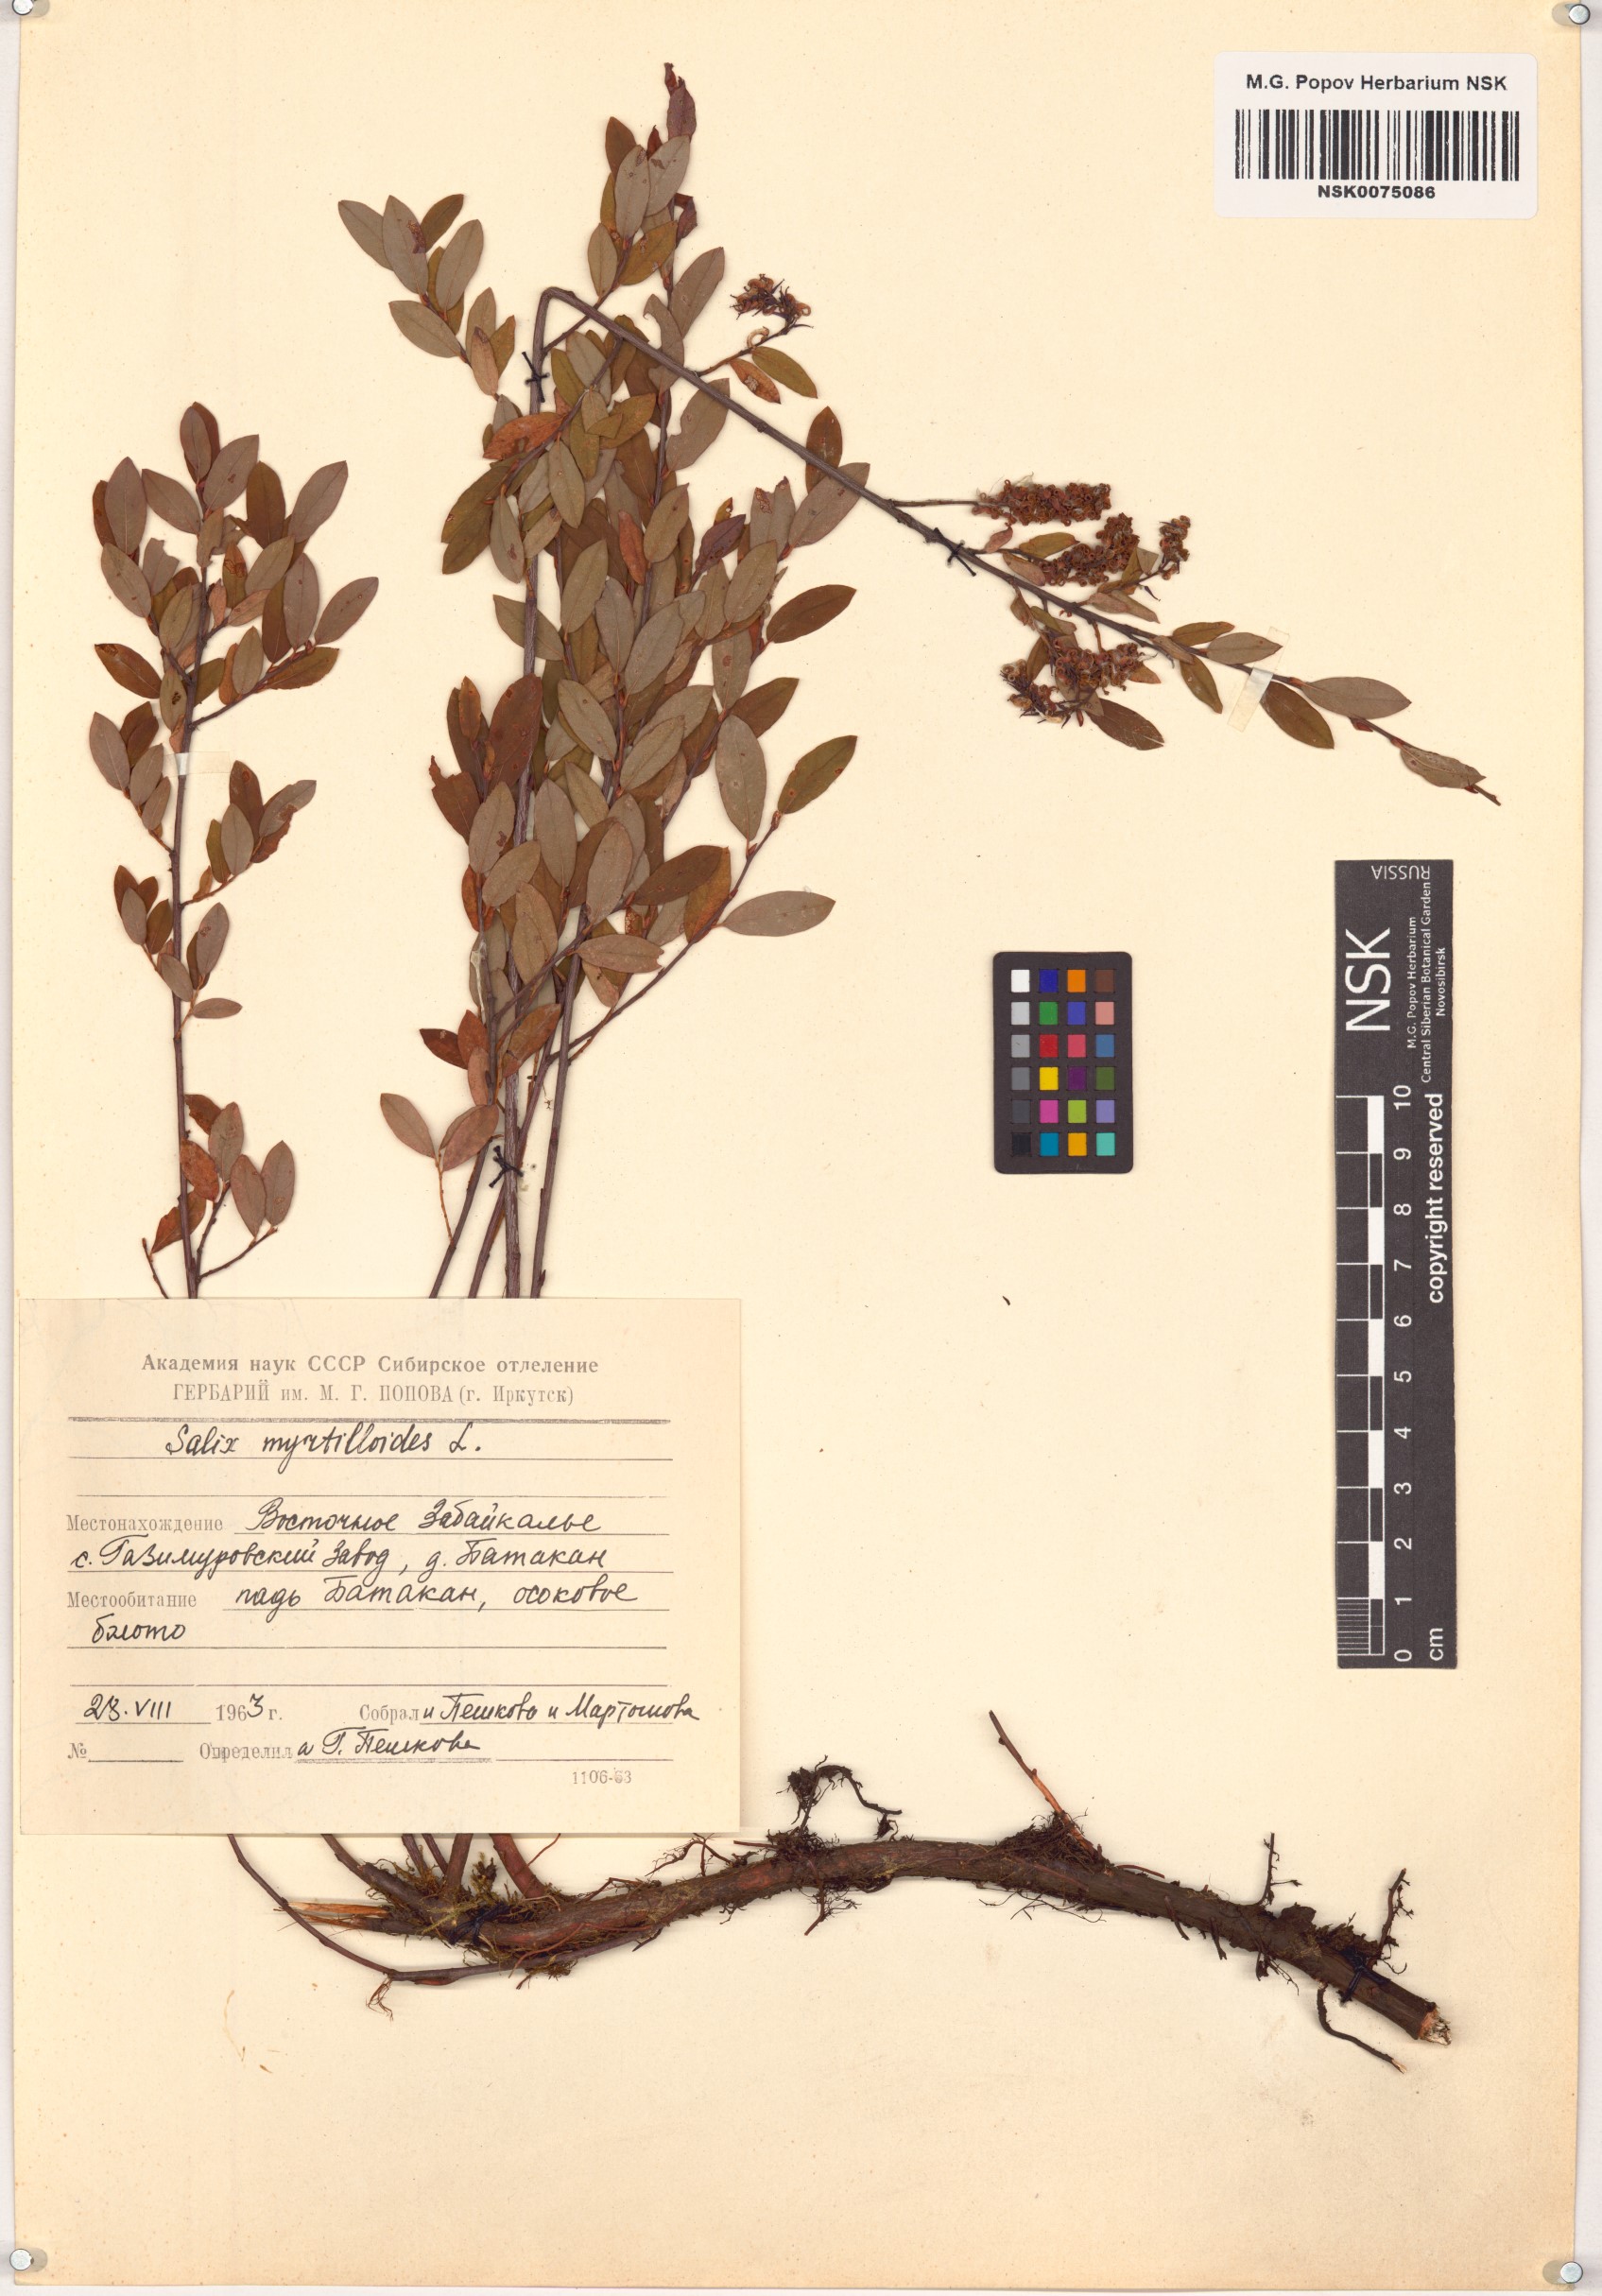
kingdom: Plantae
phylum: Tracheophyta
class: Magnoliopsida
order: Malpighiales
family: Salicaceae
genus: Salix
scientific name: Salix myrtilloides
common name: Myrtle-leaved willow
